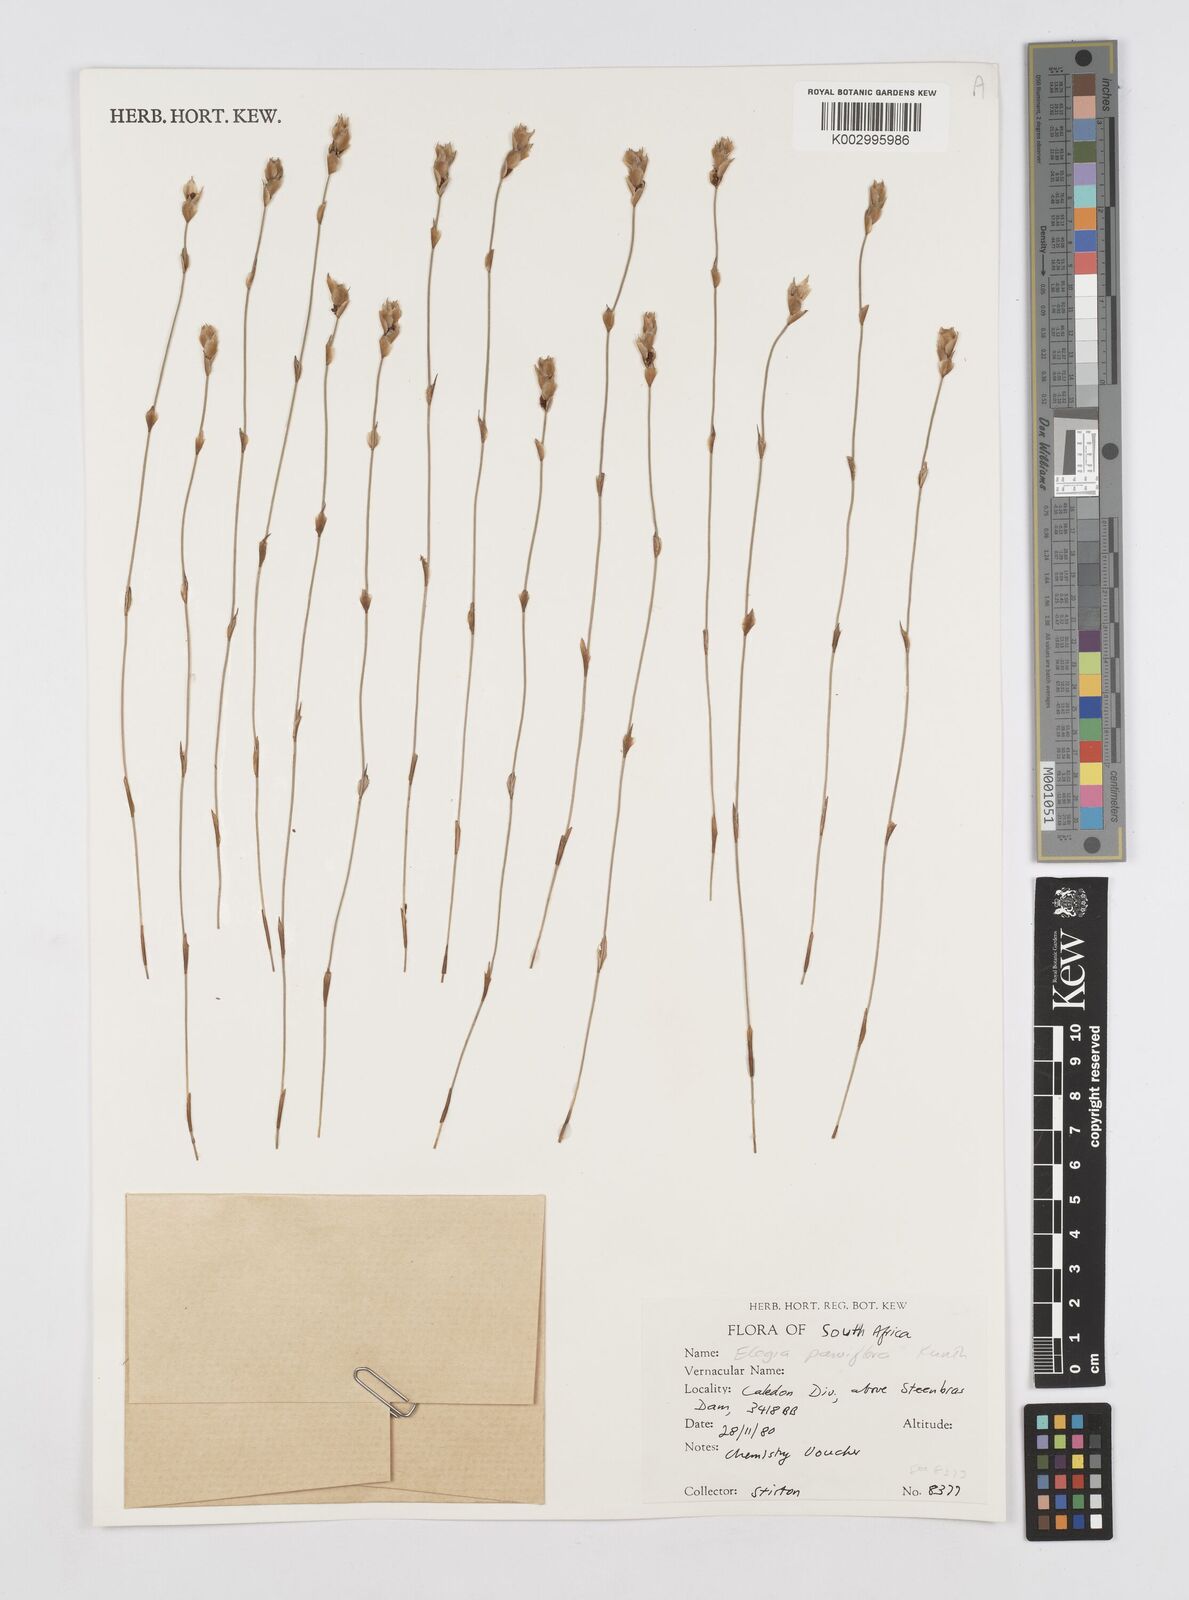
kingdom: Plantae
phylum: Tracheophyta
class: Liliopsida
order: Poales
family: Restionaceae
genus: Cannomois
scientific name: Cannomois parviflora
